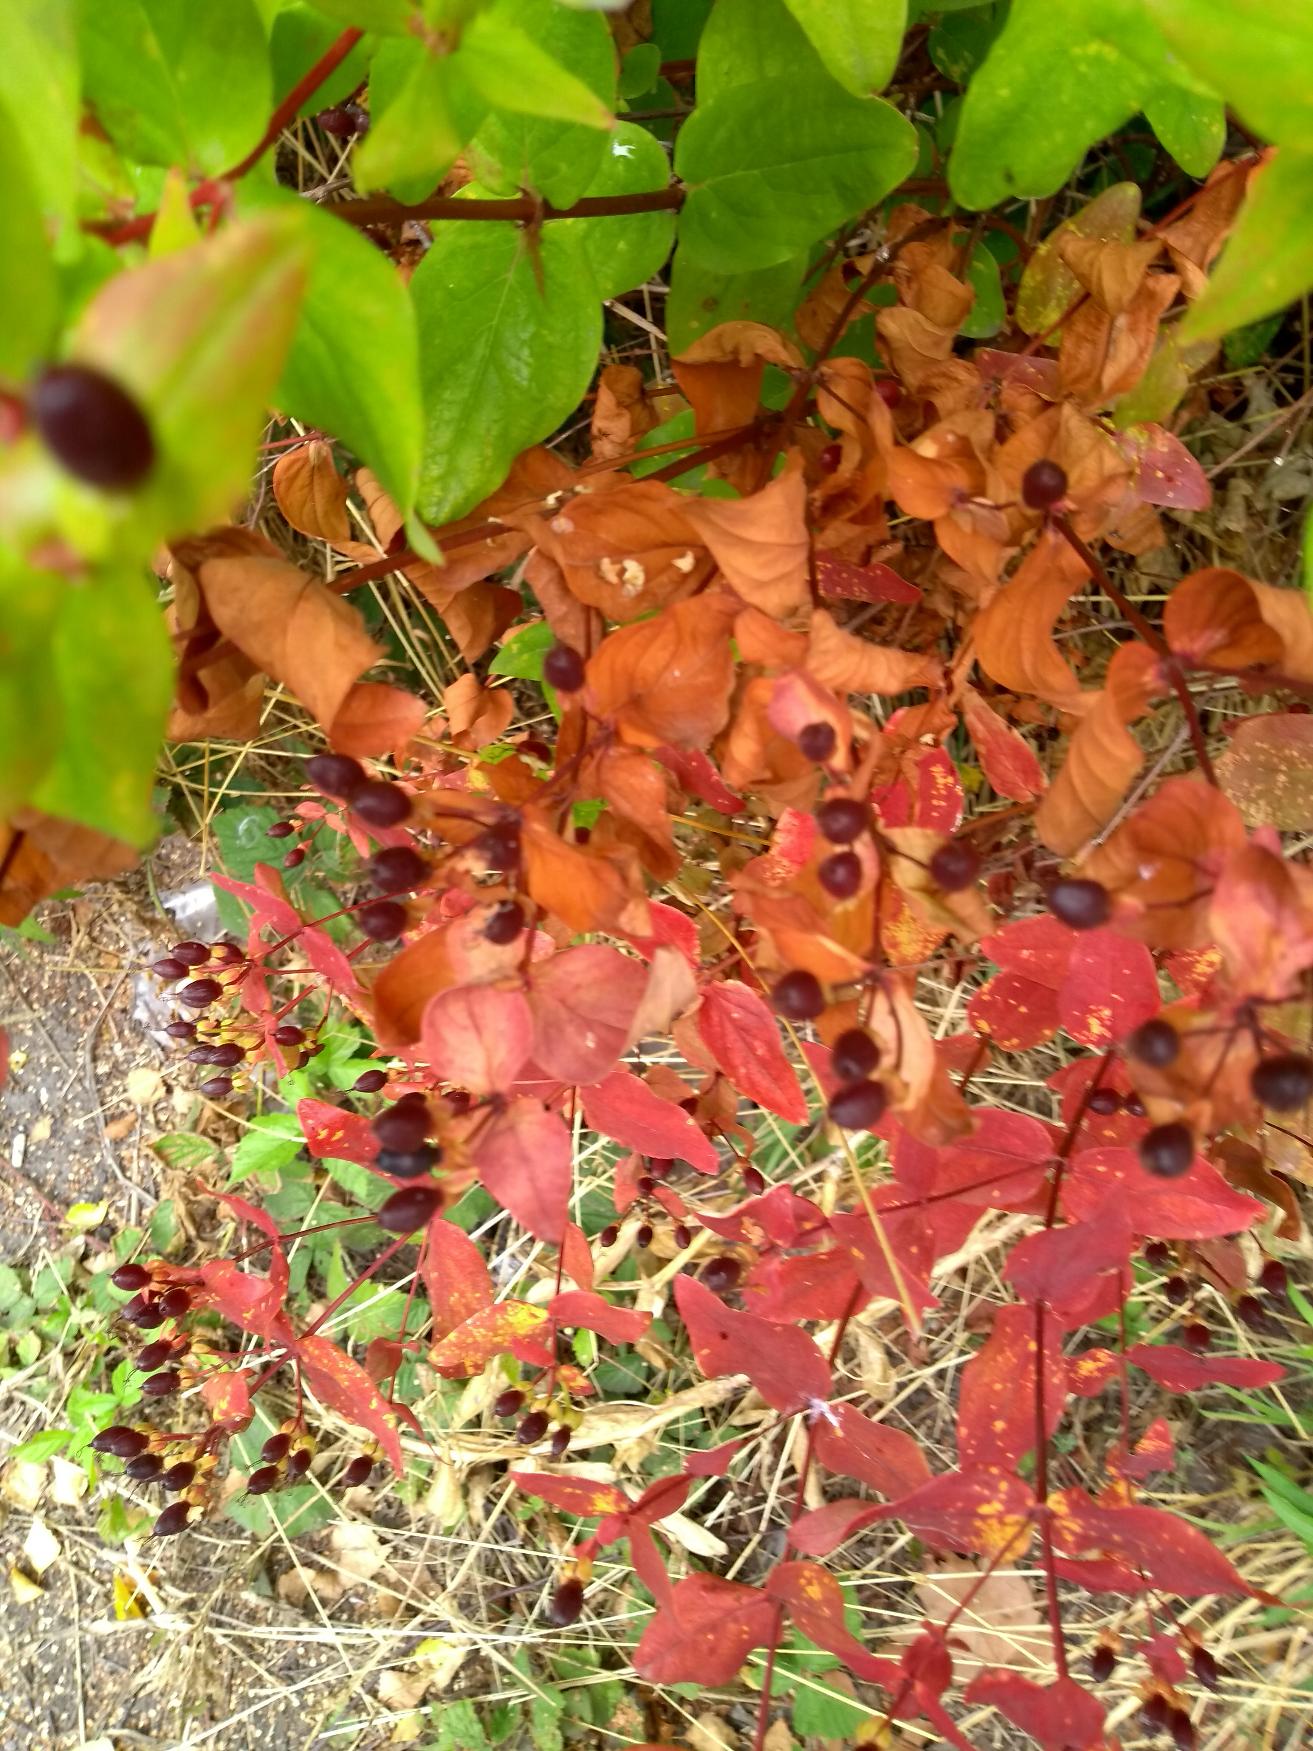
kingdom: Plantae
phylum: Tracheophyta
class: Magnoliopsida
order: Malpighiales
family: Hypericaceae
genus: Hypericum
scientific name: Hypericum inodorum
